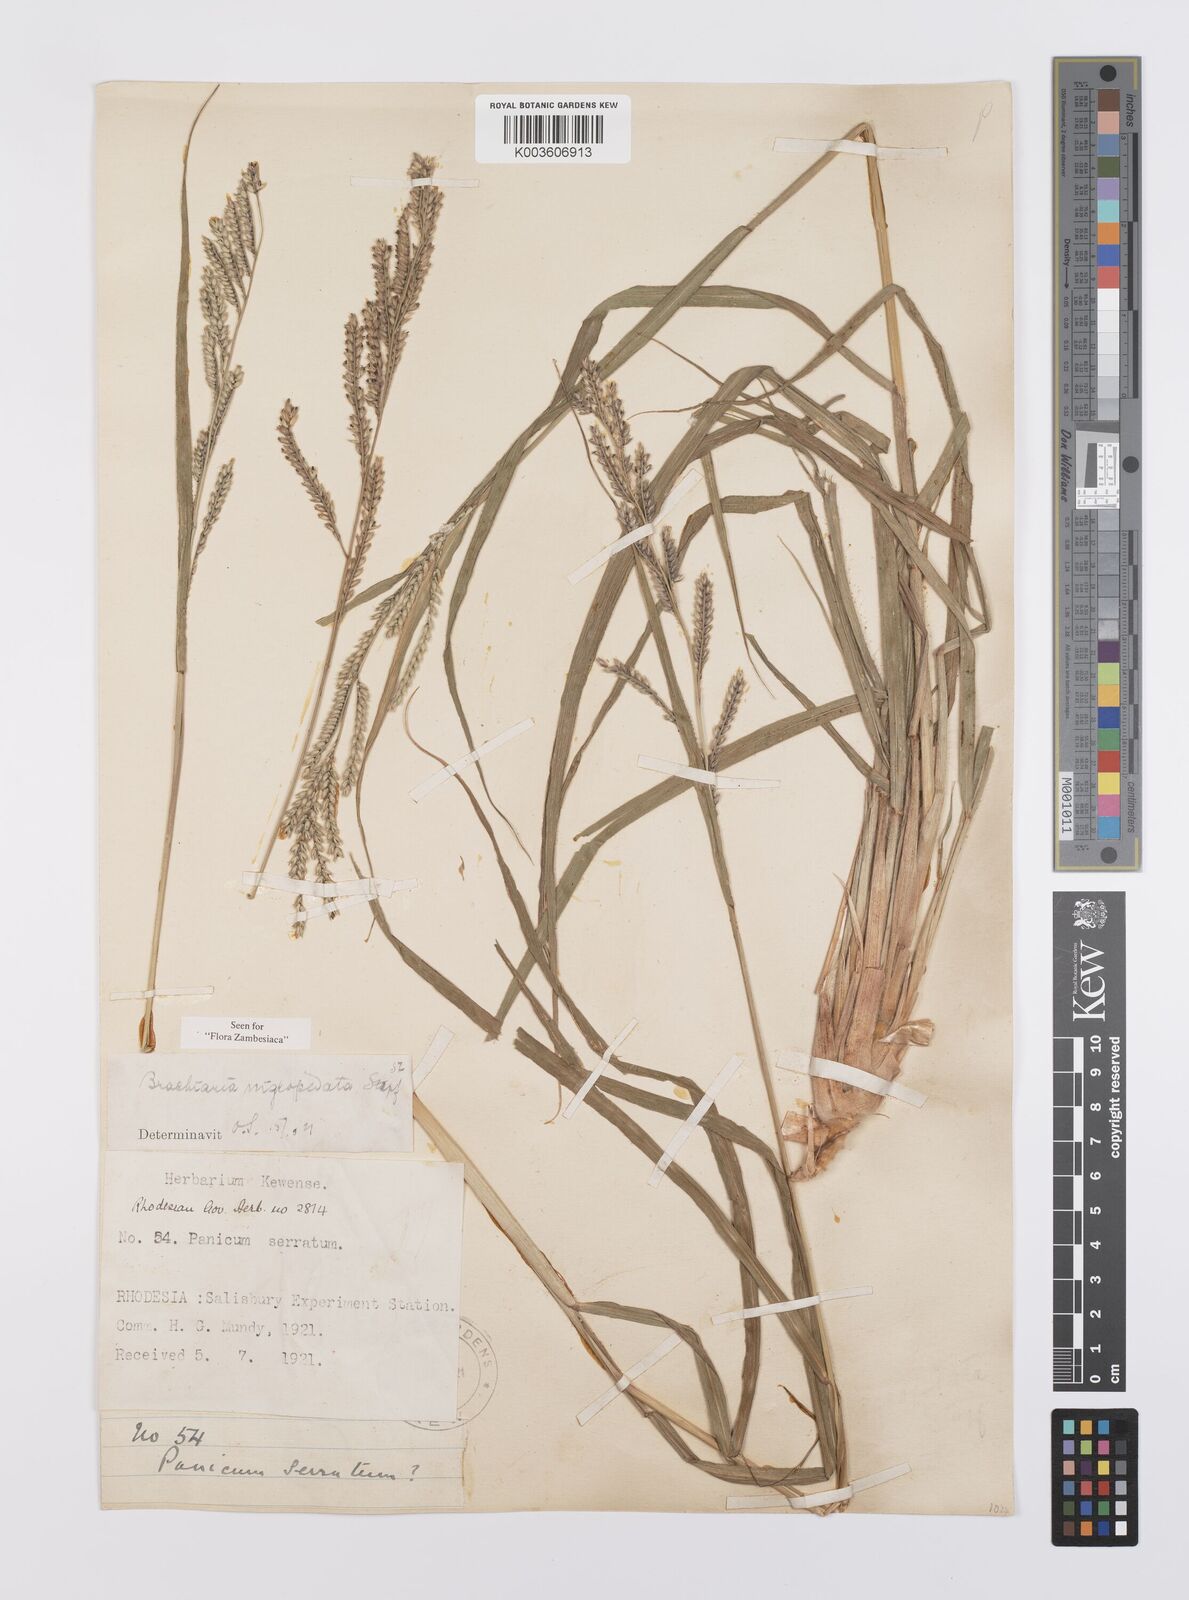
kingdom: Plantae
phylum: Tracheophyta
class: Liliopsida
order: Poales
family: Poaceae
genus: Urochloa
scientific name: Urochloa nigropedata
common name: Spotted signal grass
